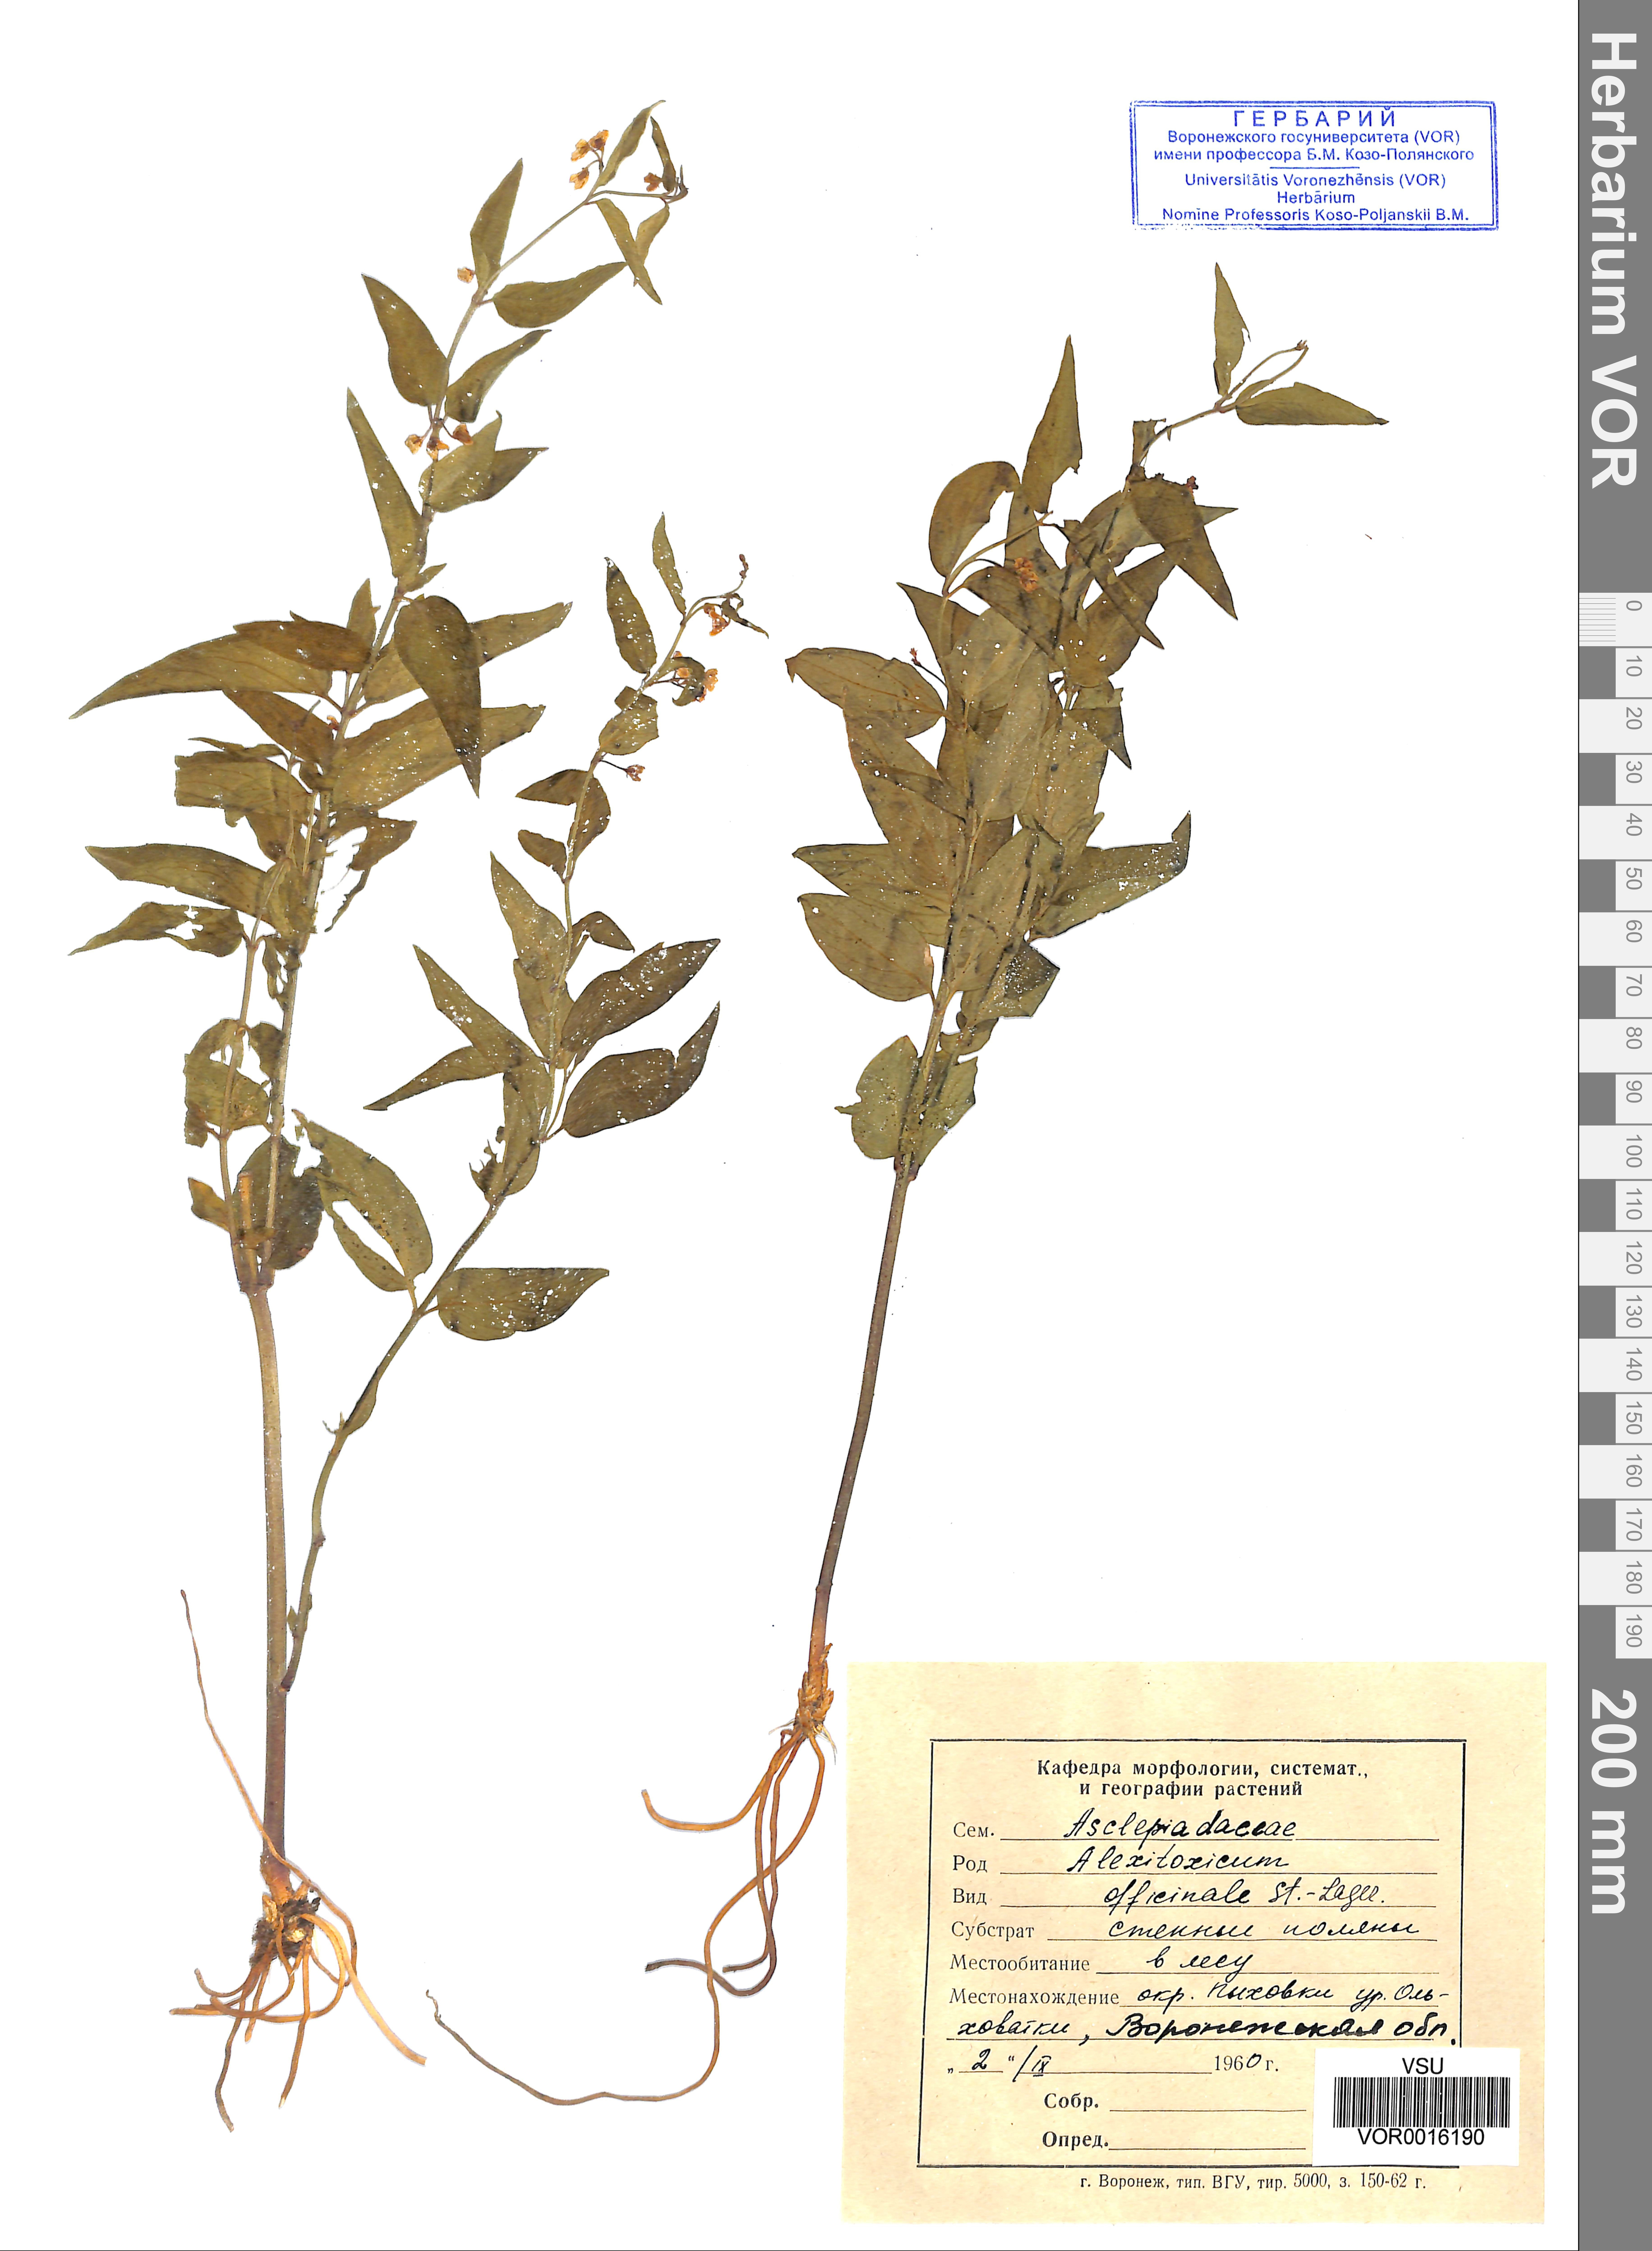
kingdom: Plantae
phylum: Tracheophyta
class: Magnoliopsida
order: Gentianales
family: Apocynaceae
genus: Vincetoxicum
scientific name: Vincetoxicum hirundinaria
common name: White swallowwort
